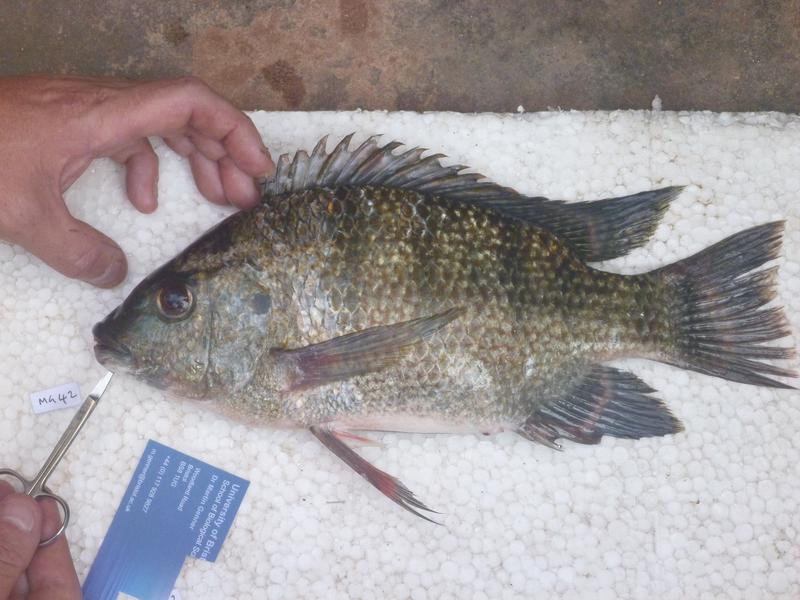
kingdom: Animalia
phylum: Chordata
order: Perciformes
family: Cichlidae
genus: Oreochromis
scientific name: Oreochromis tanganicae
